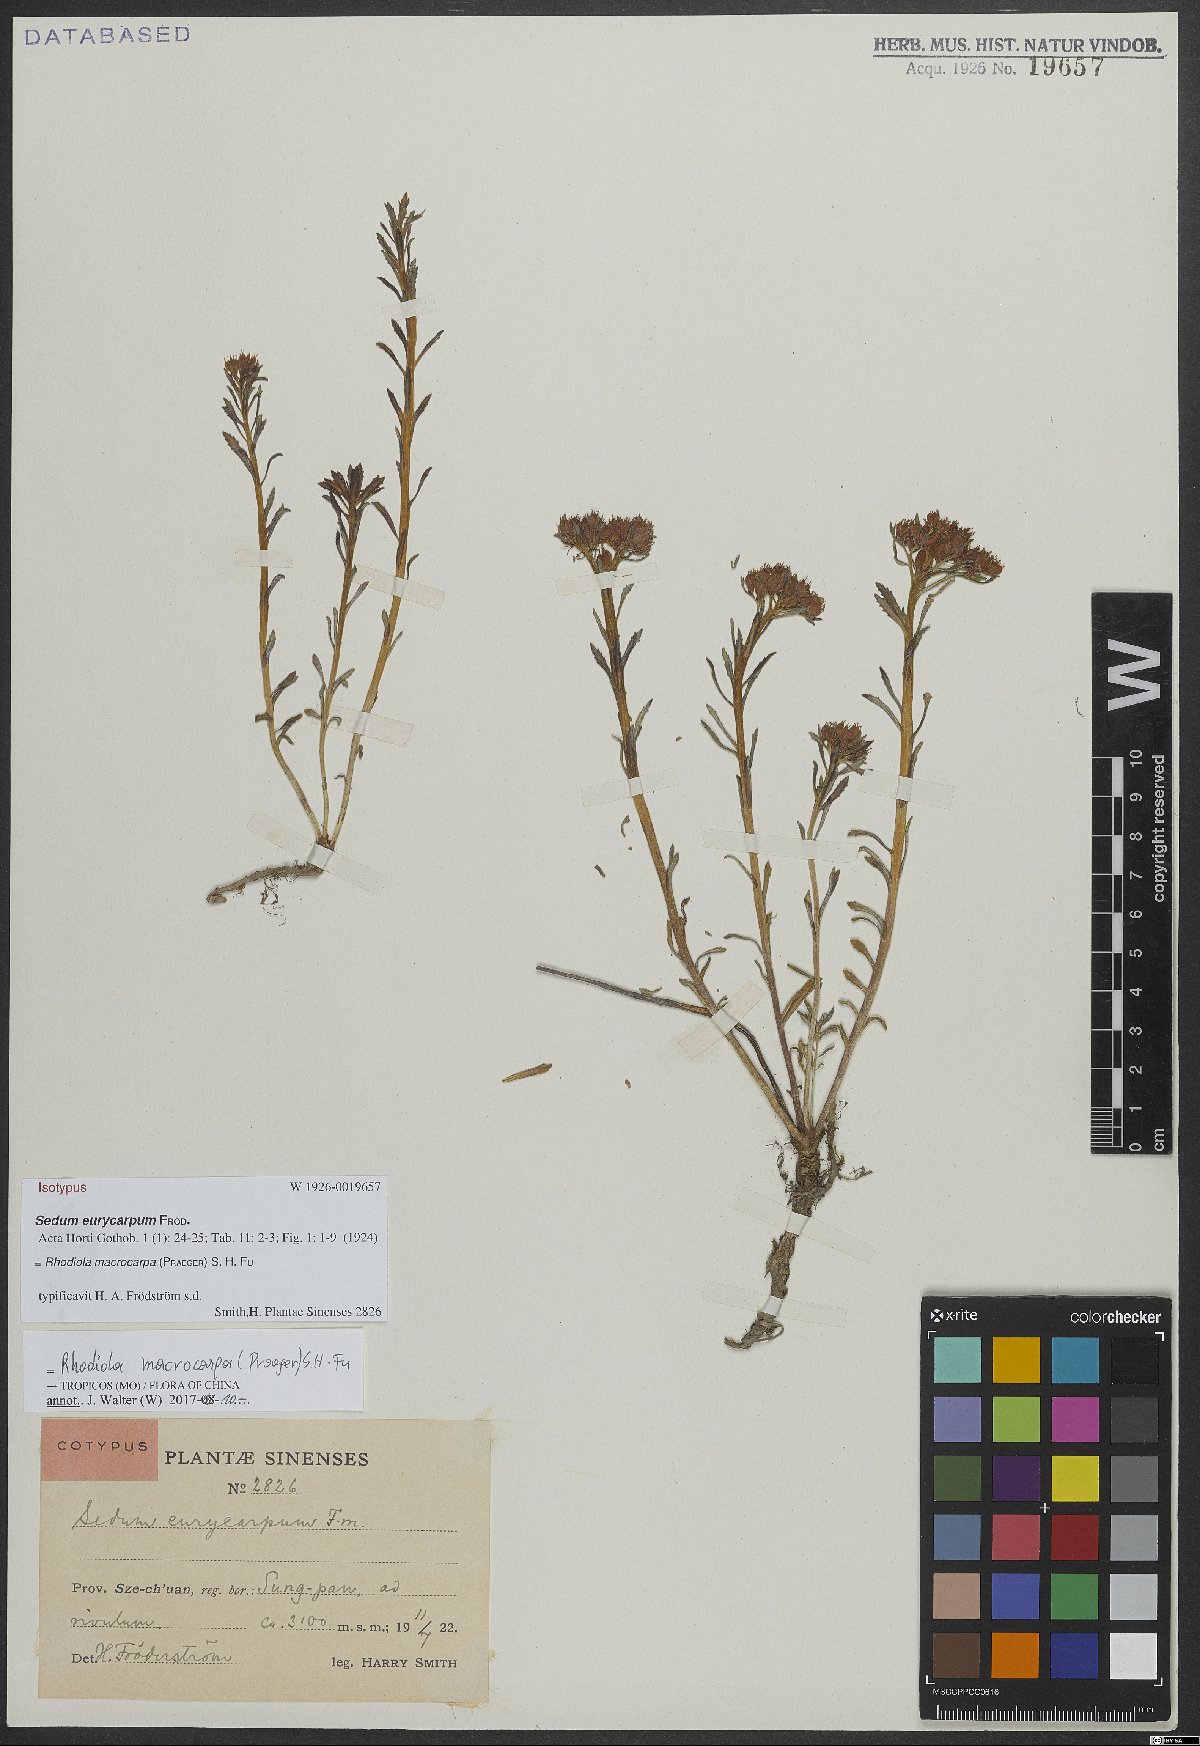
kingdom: Plantae
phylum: Tracheophyta
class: Magnoliopsida
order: Saxifragales
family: Crassulaceae
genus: Rhodiola
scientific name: Rhodiola macrocarpa
